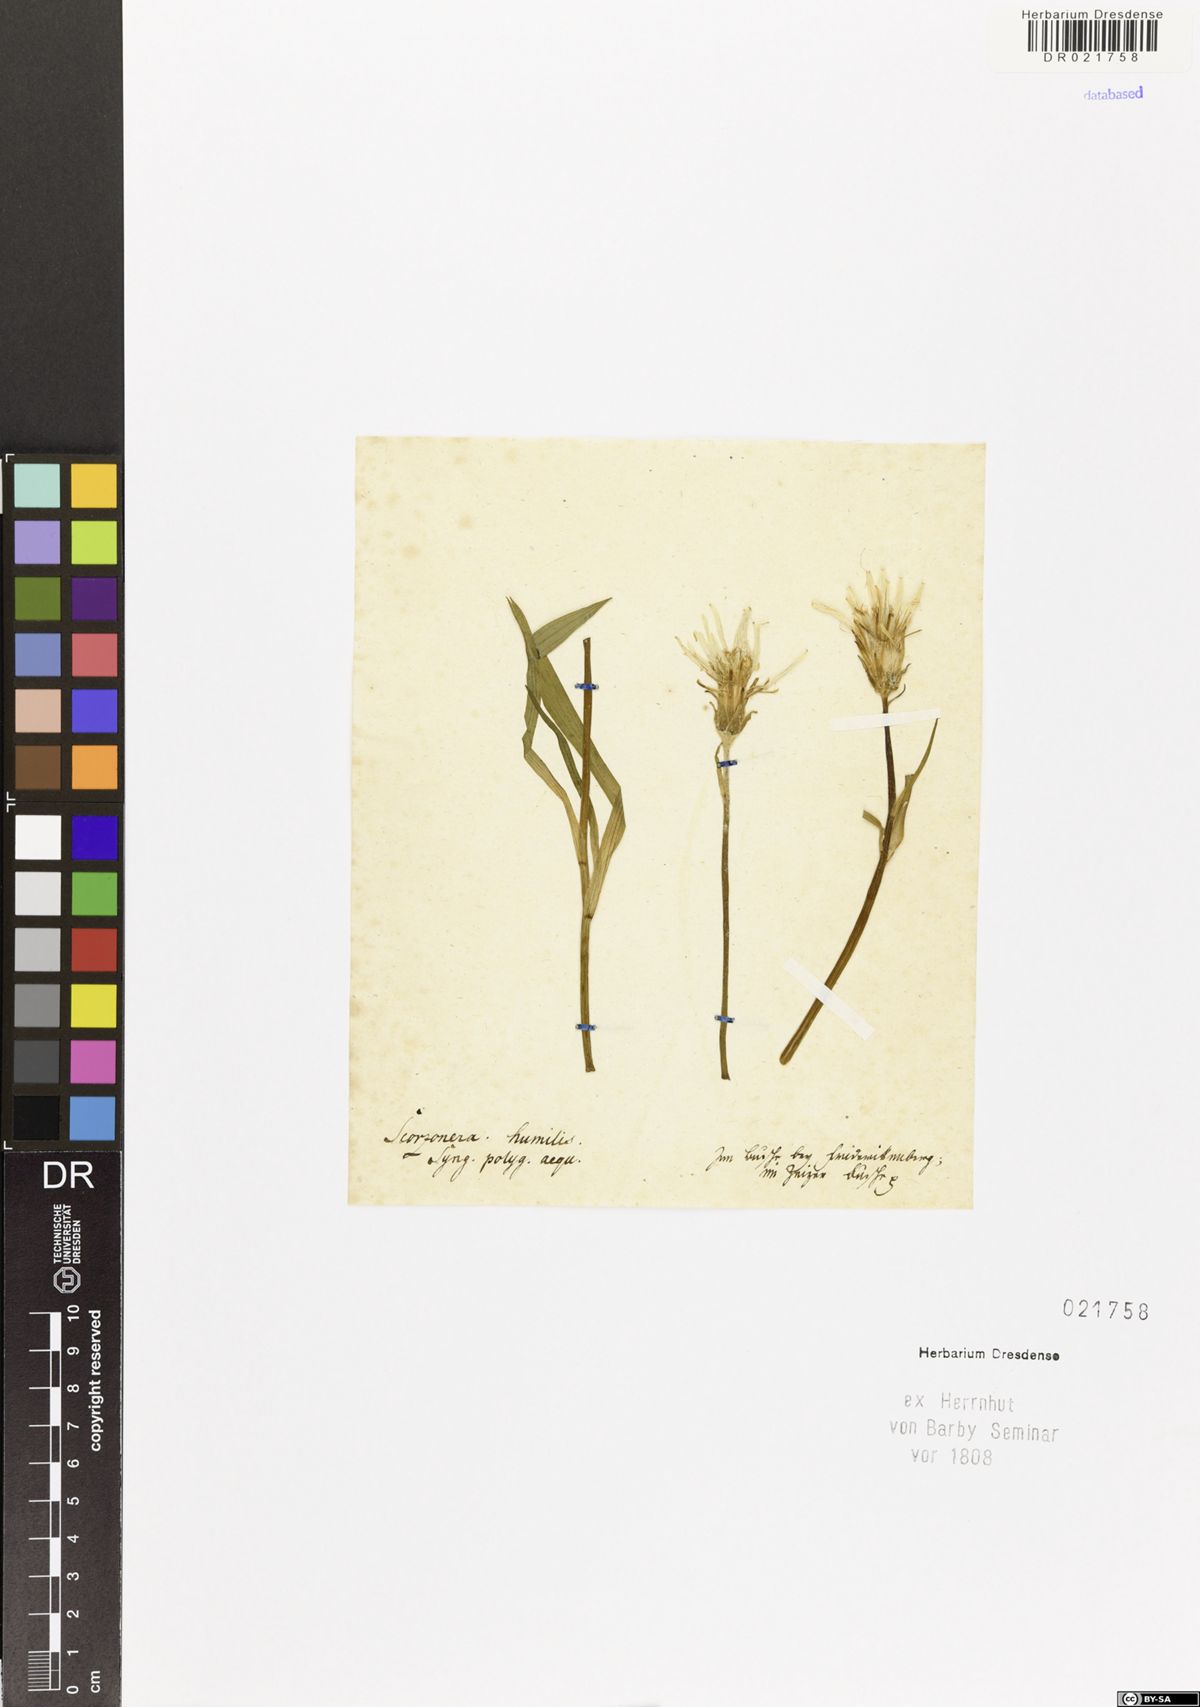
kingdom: Plantae
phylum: Tracheophyta
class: Magnoliopsida
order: Asterales
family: Asteraceae
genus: Scorzonera
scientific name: Scorzonera humilis
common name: Viper's-grass
